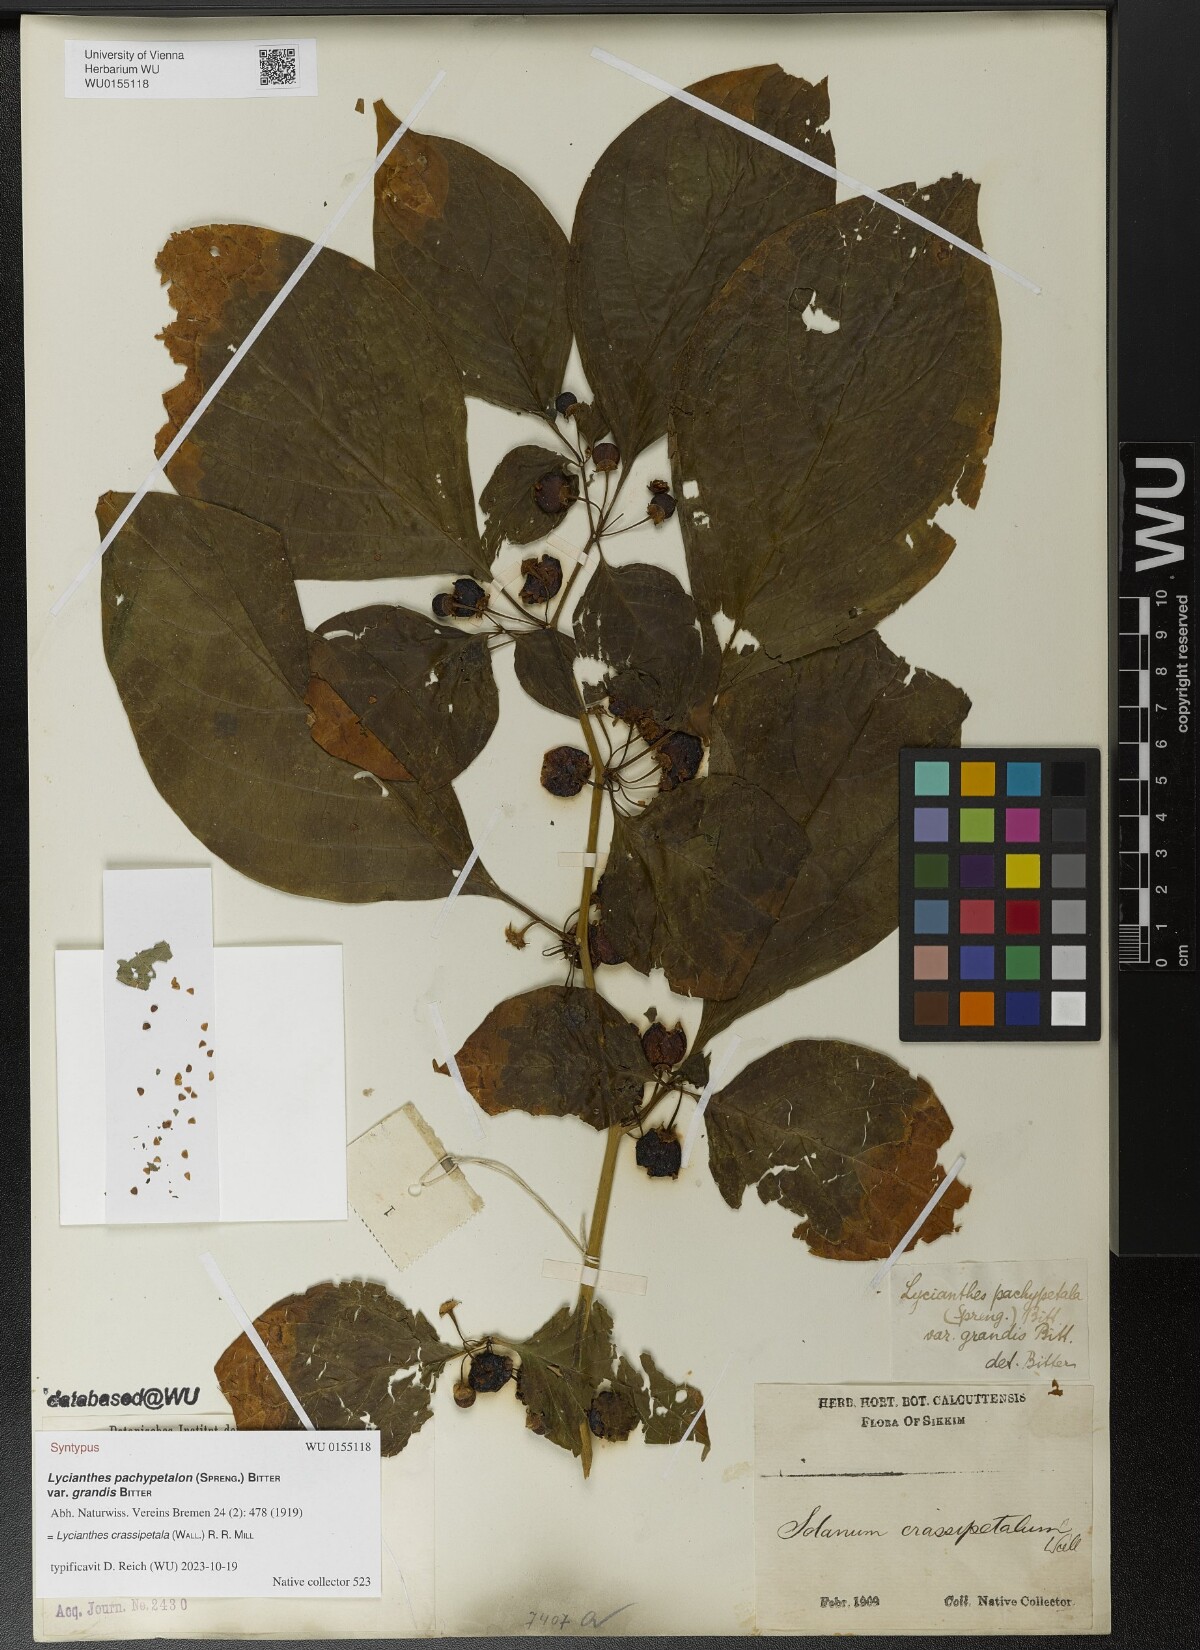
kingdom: Plantae
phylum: Tracheophyta
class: Magnoliopsida
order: Solanales
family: Solanaceae
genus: Lycianthes
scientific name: Lycianthes crassipetalum
